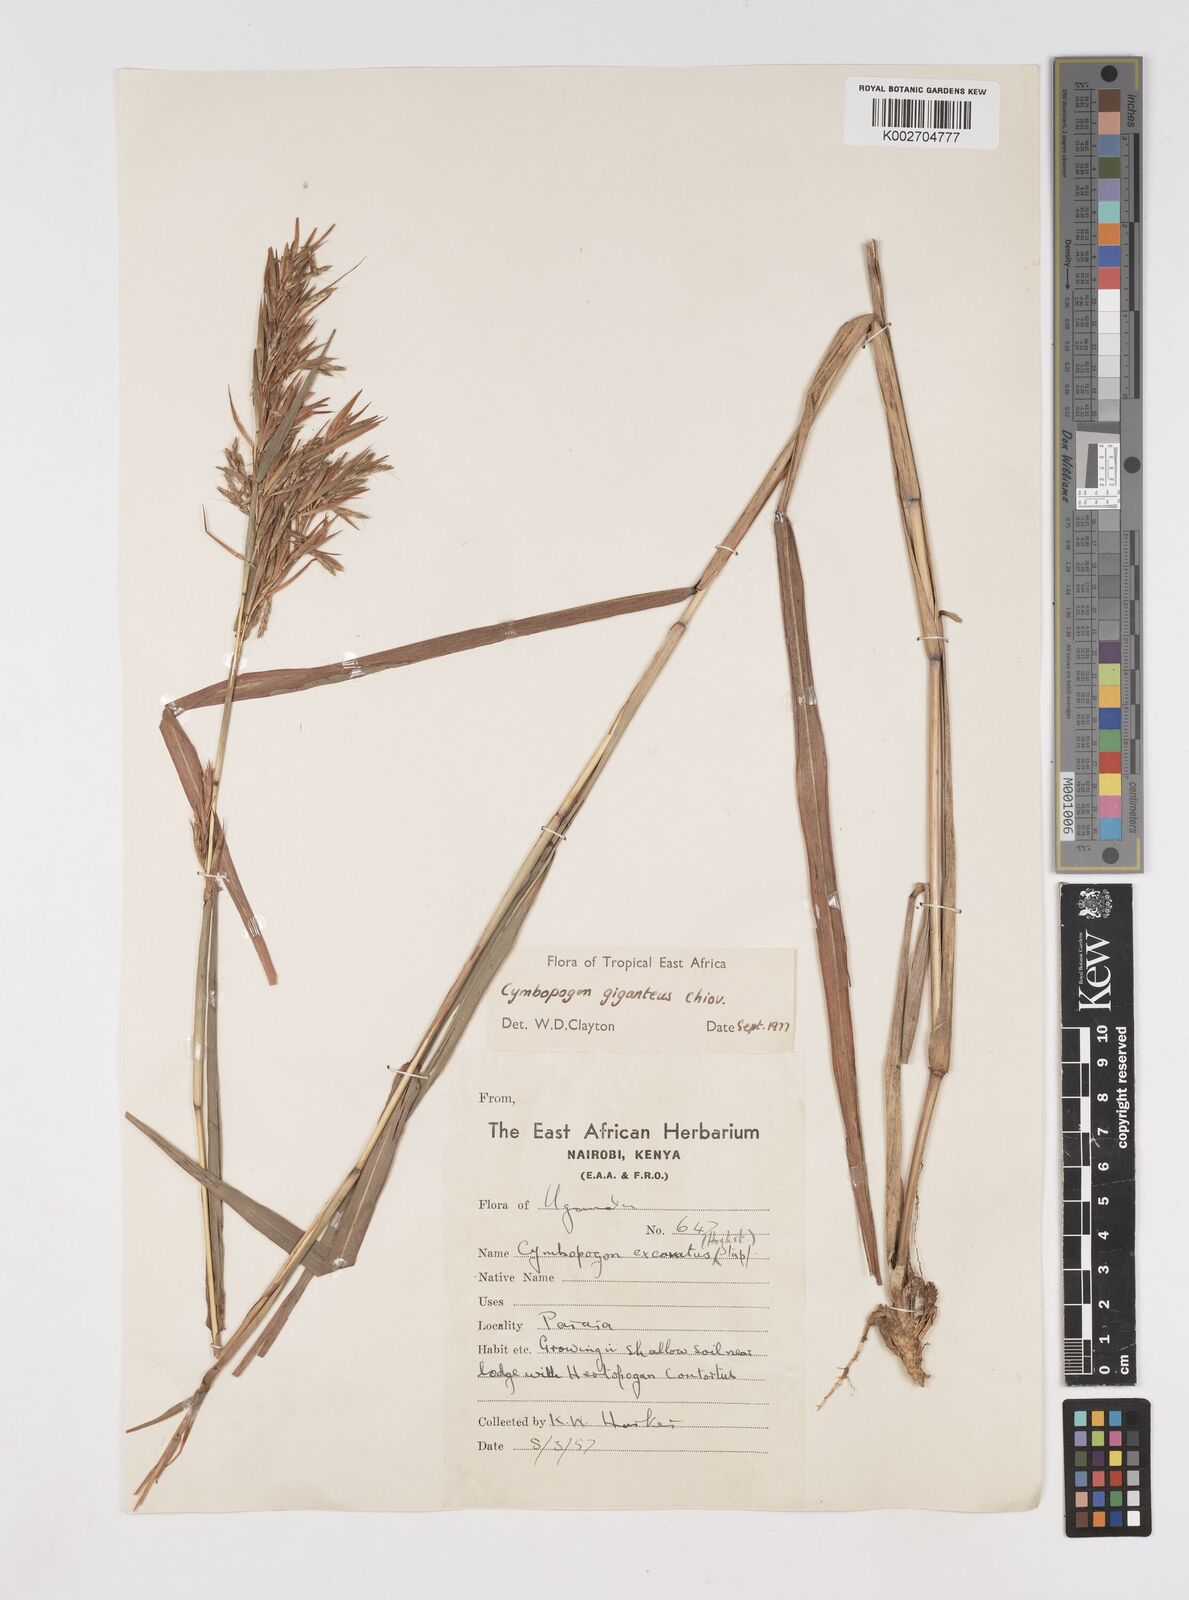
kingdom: Plantae
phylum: Tracheophyta
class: Liliopsida
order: Poales
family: Poaceae
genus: Cymbopogon
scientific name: Cymbopogon giganteus
